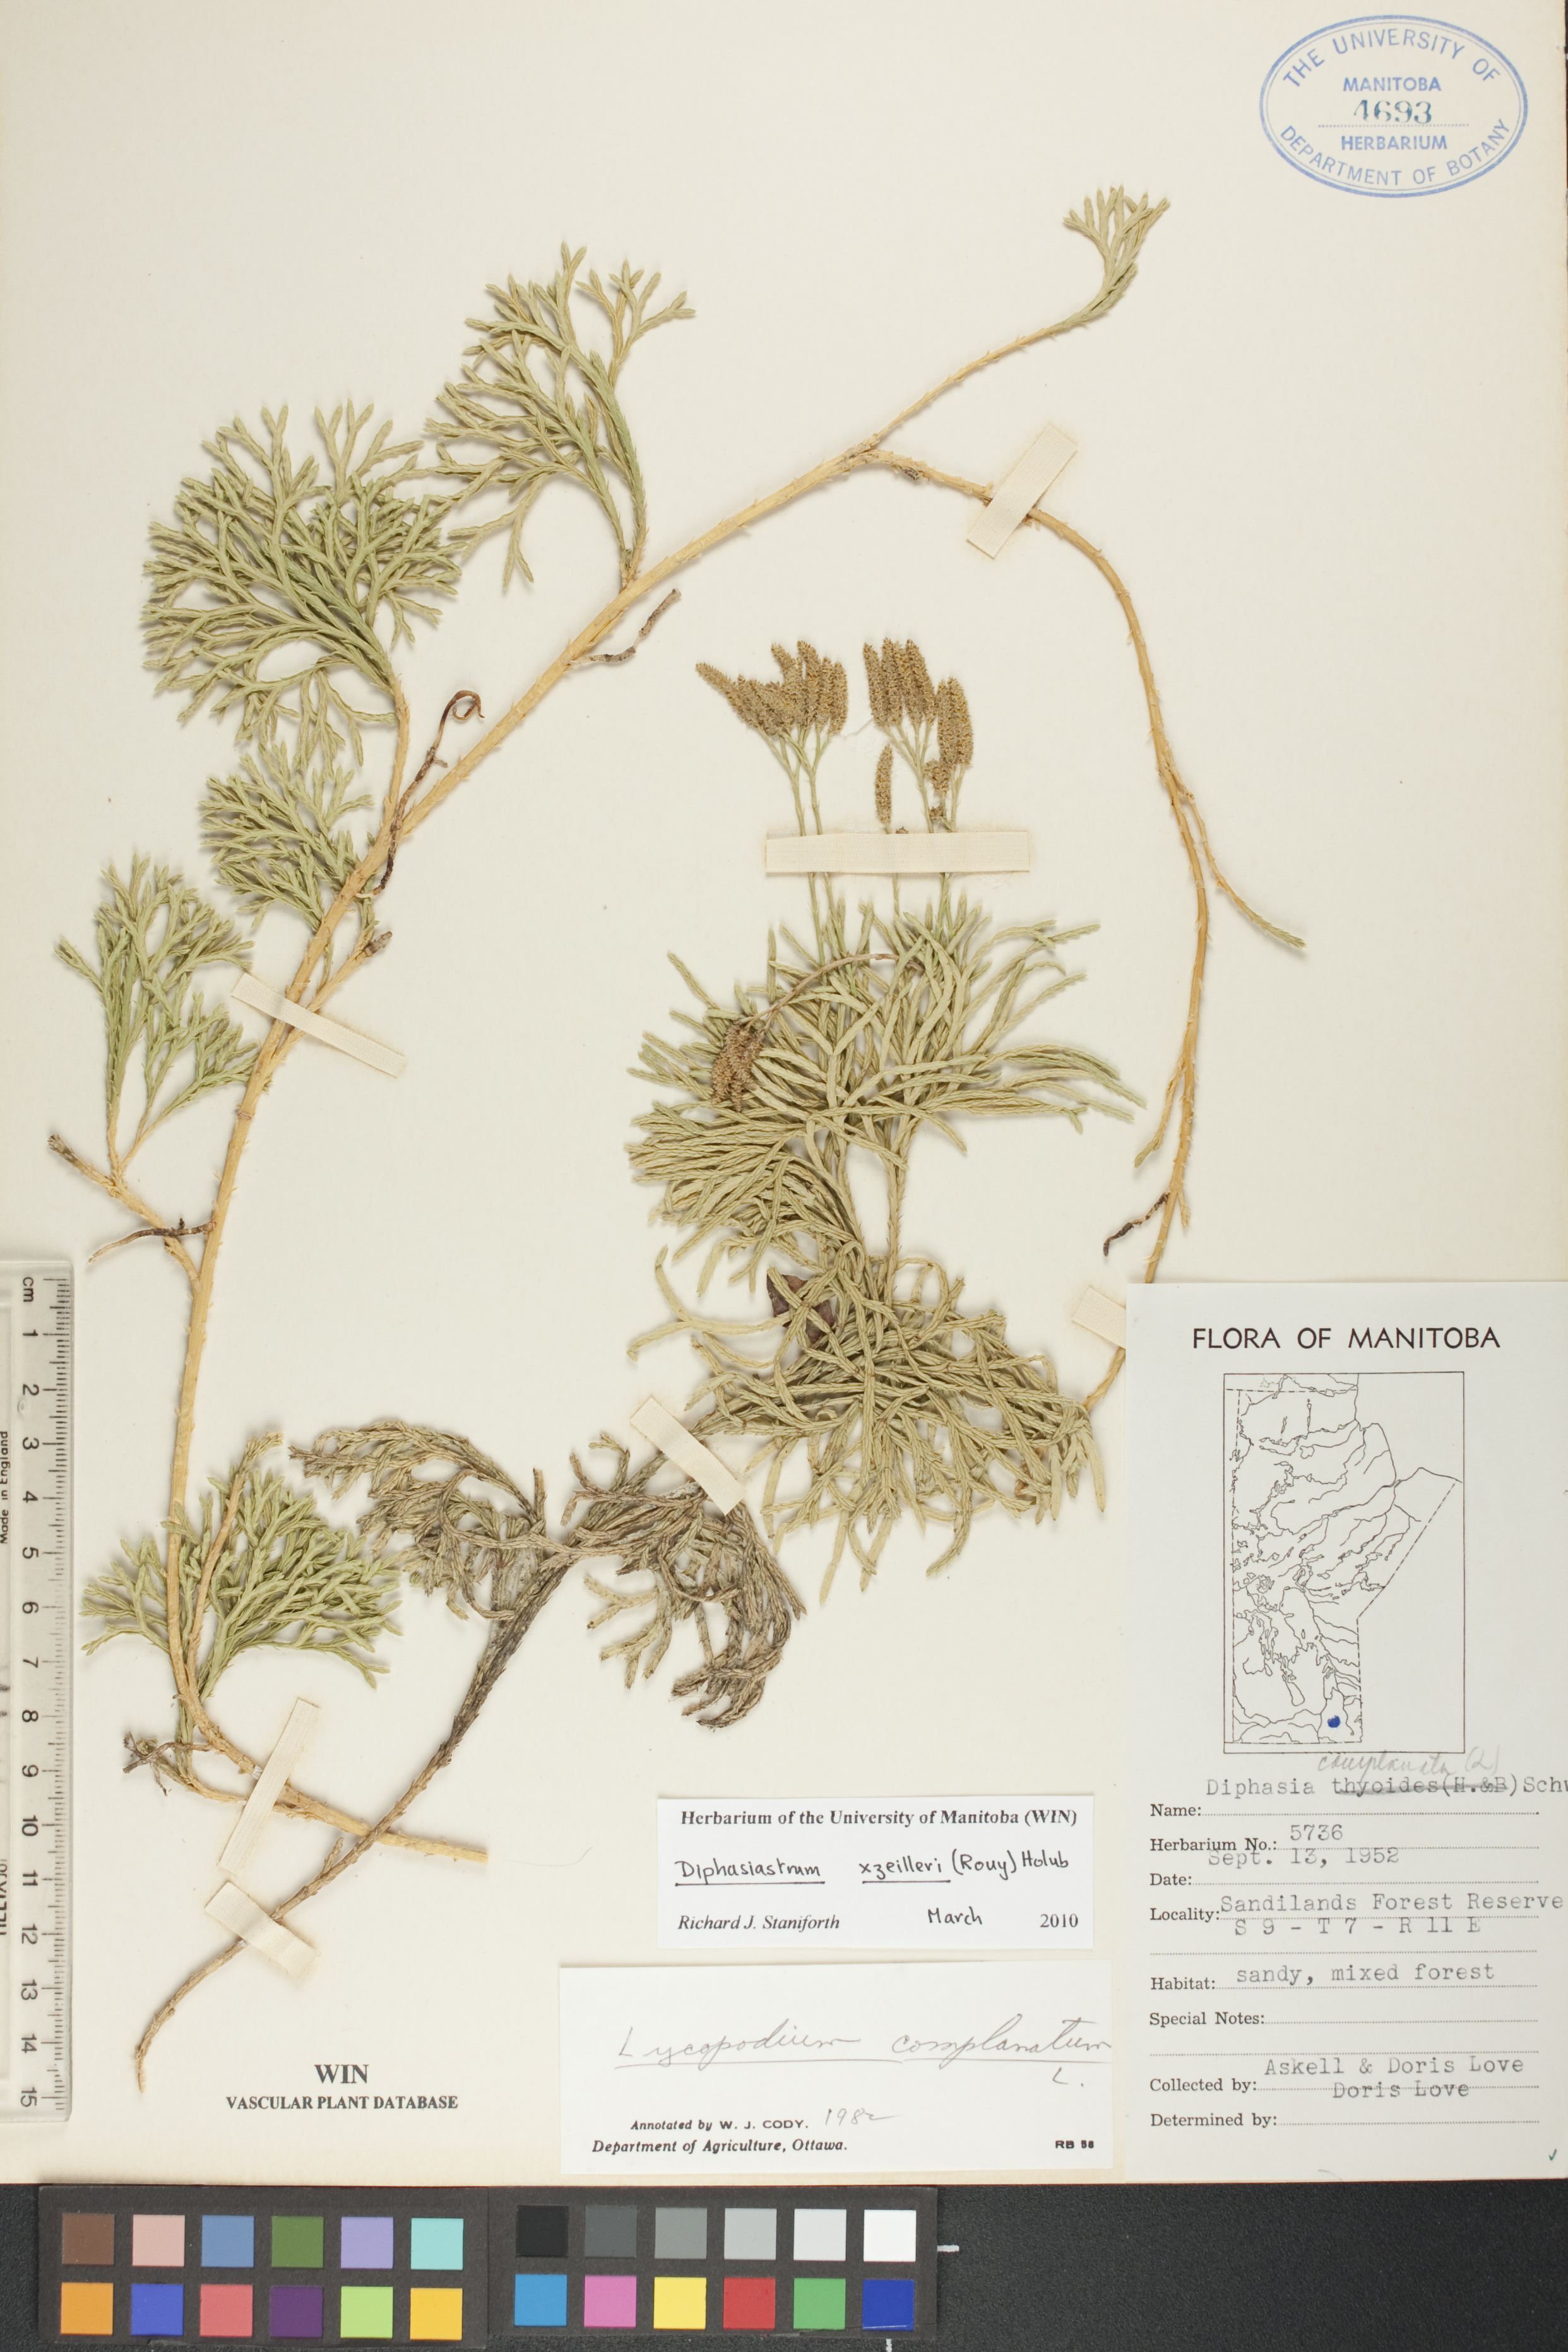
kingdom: Plantae
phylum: Tracheophyta
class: Lycopodiopsida
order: Lycopodiales
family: Lycopodiaceae
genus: Diphasiastrum
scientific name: Diphasiastrum zeilleri
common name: Zeiller's clubmoss
